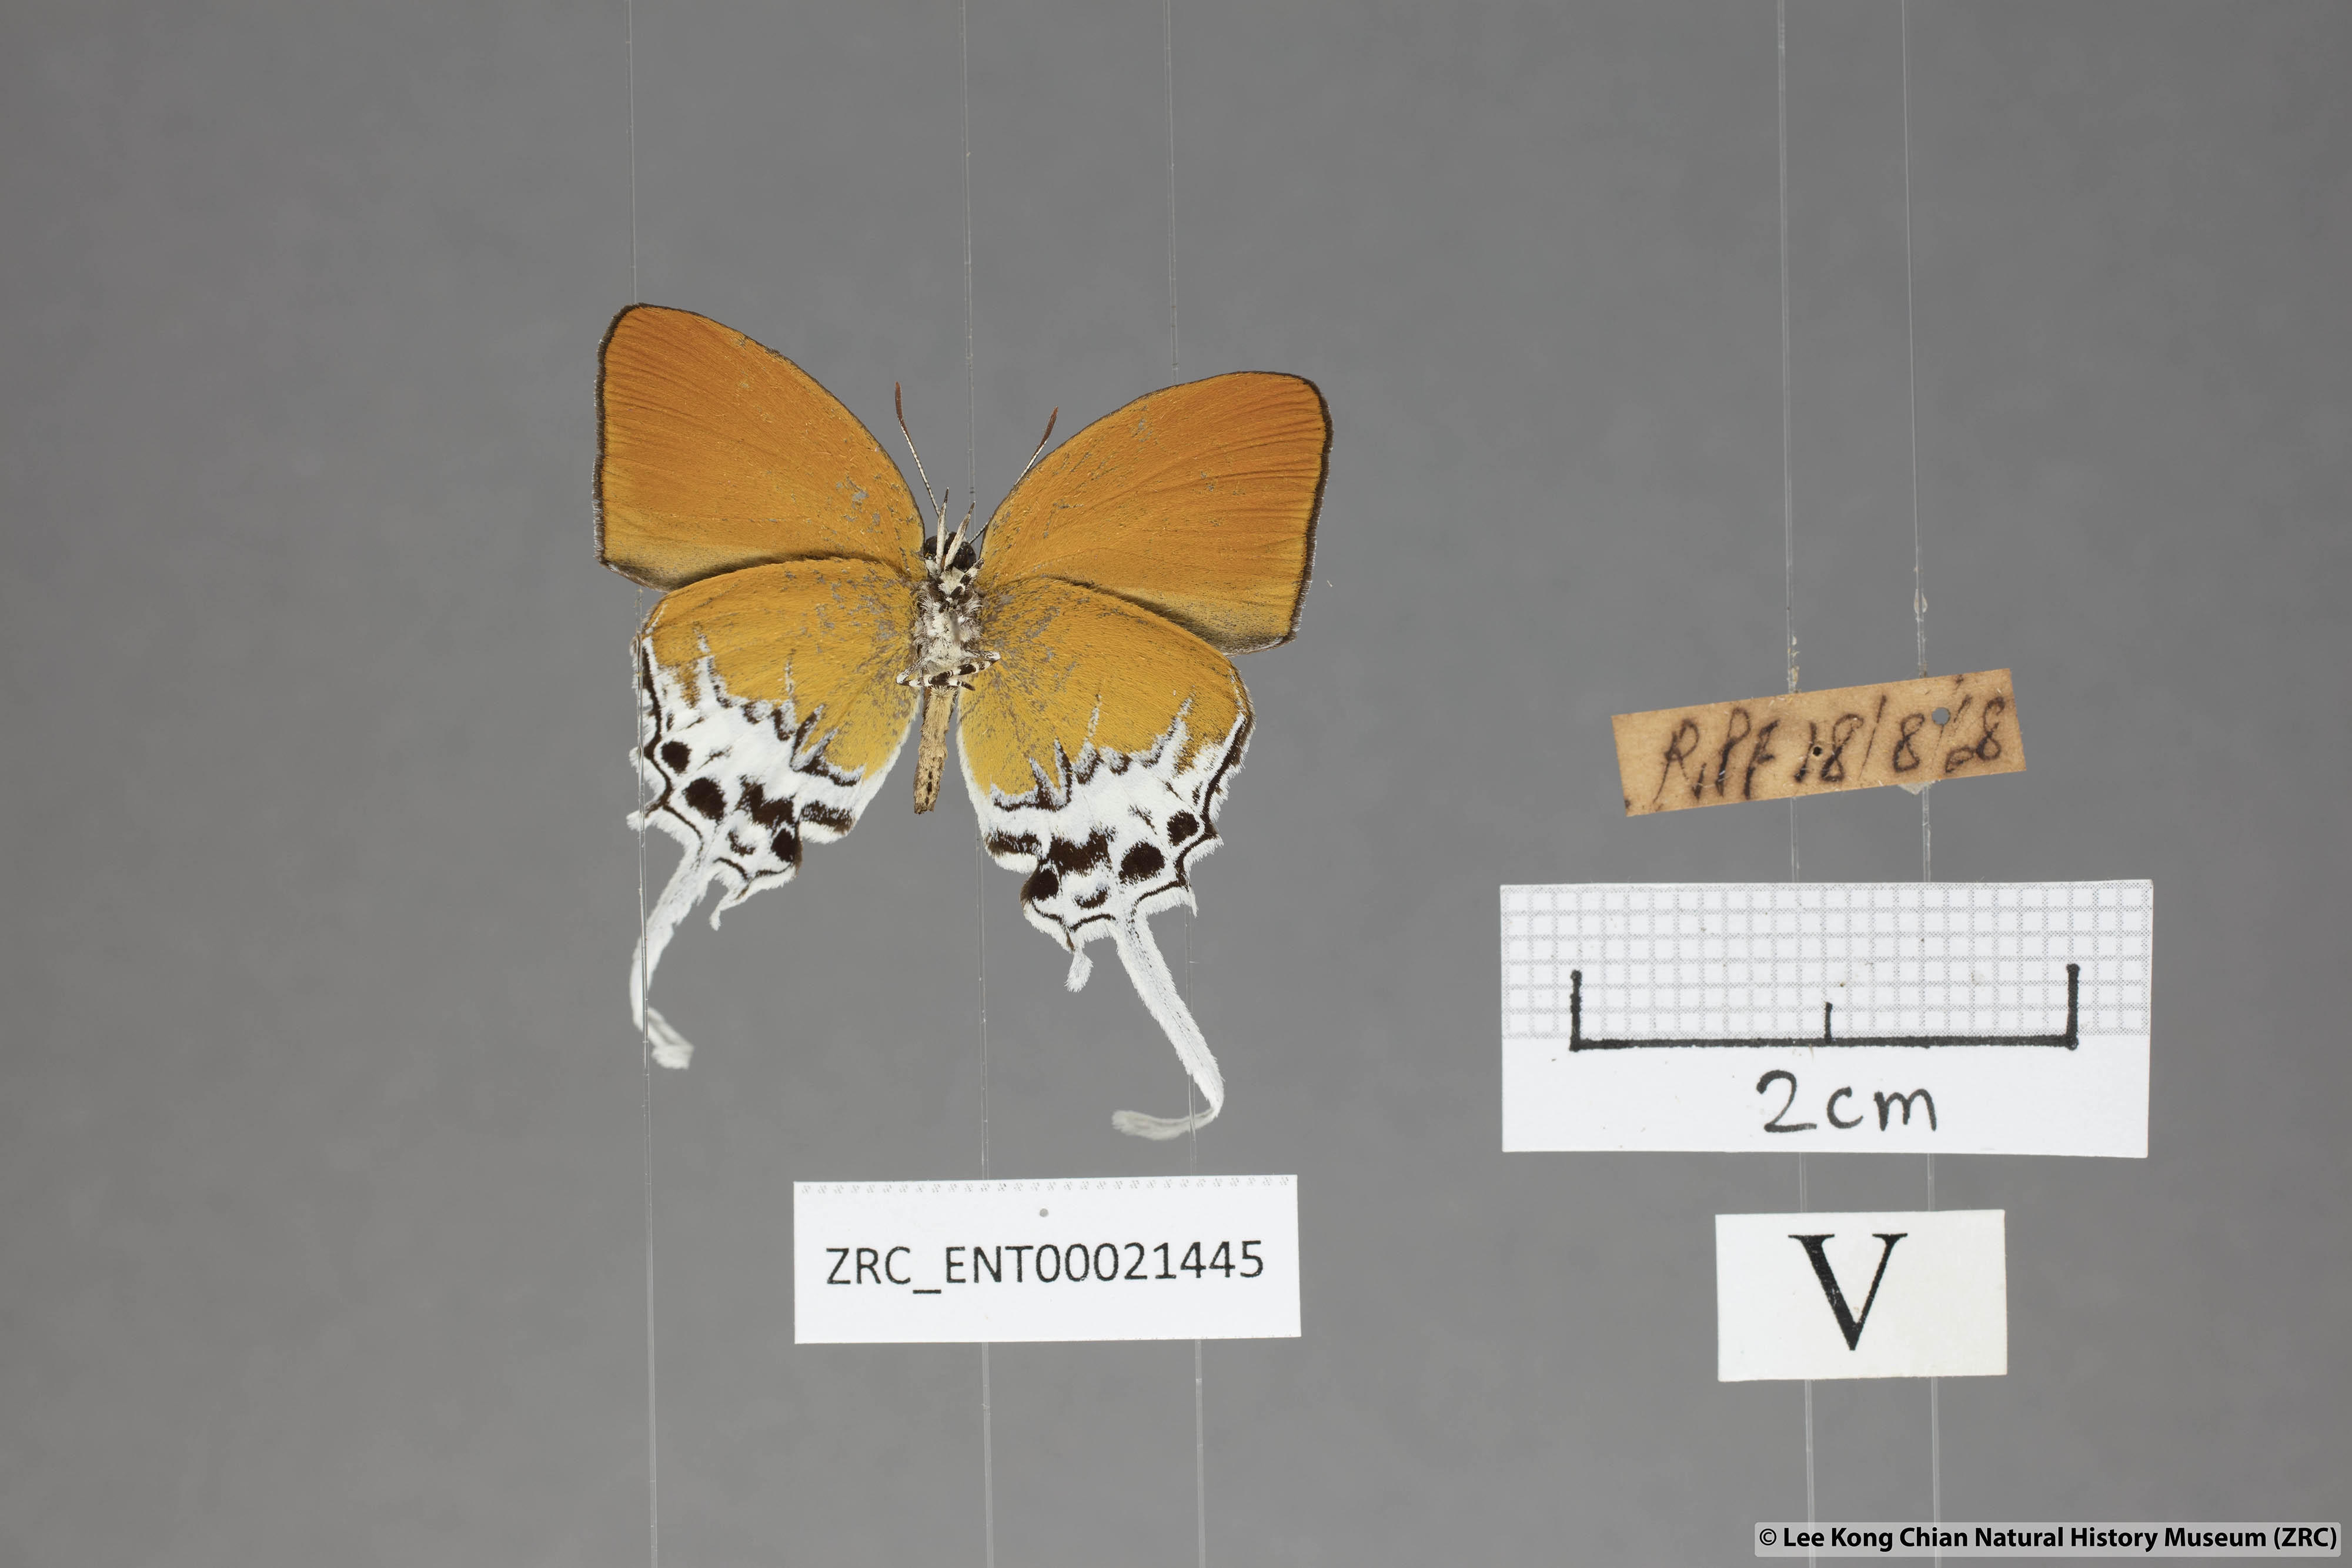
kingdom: Animalia
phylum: Arthropoda
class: Insecta
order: Lepidoptera
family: Lycaenidae
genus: Eooxylides
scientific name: Eooxylides tharis
